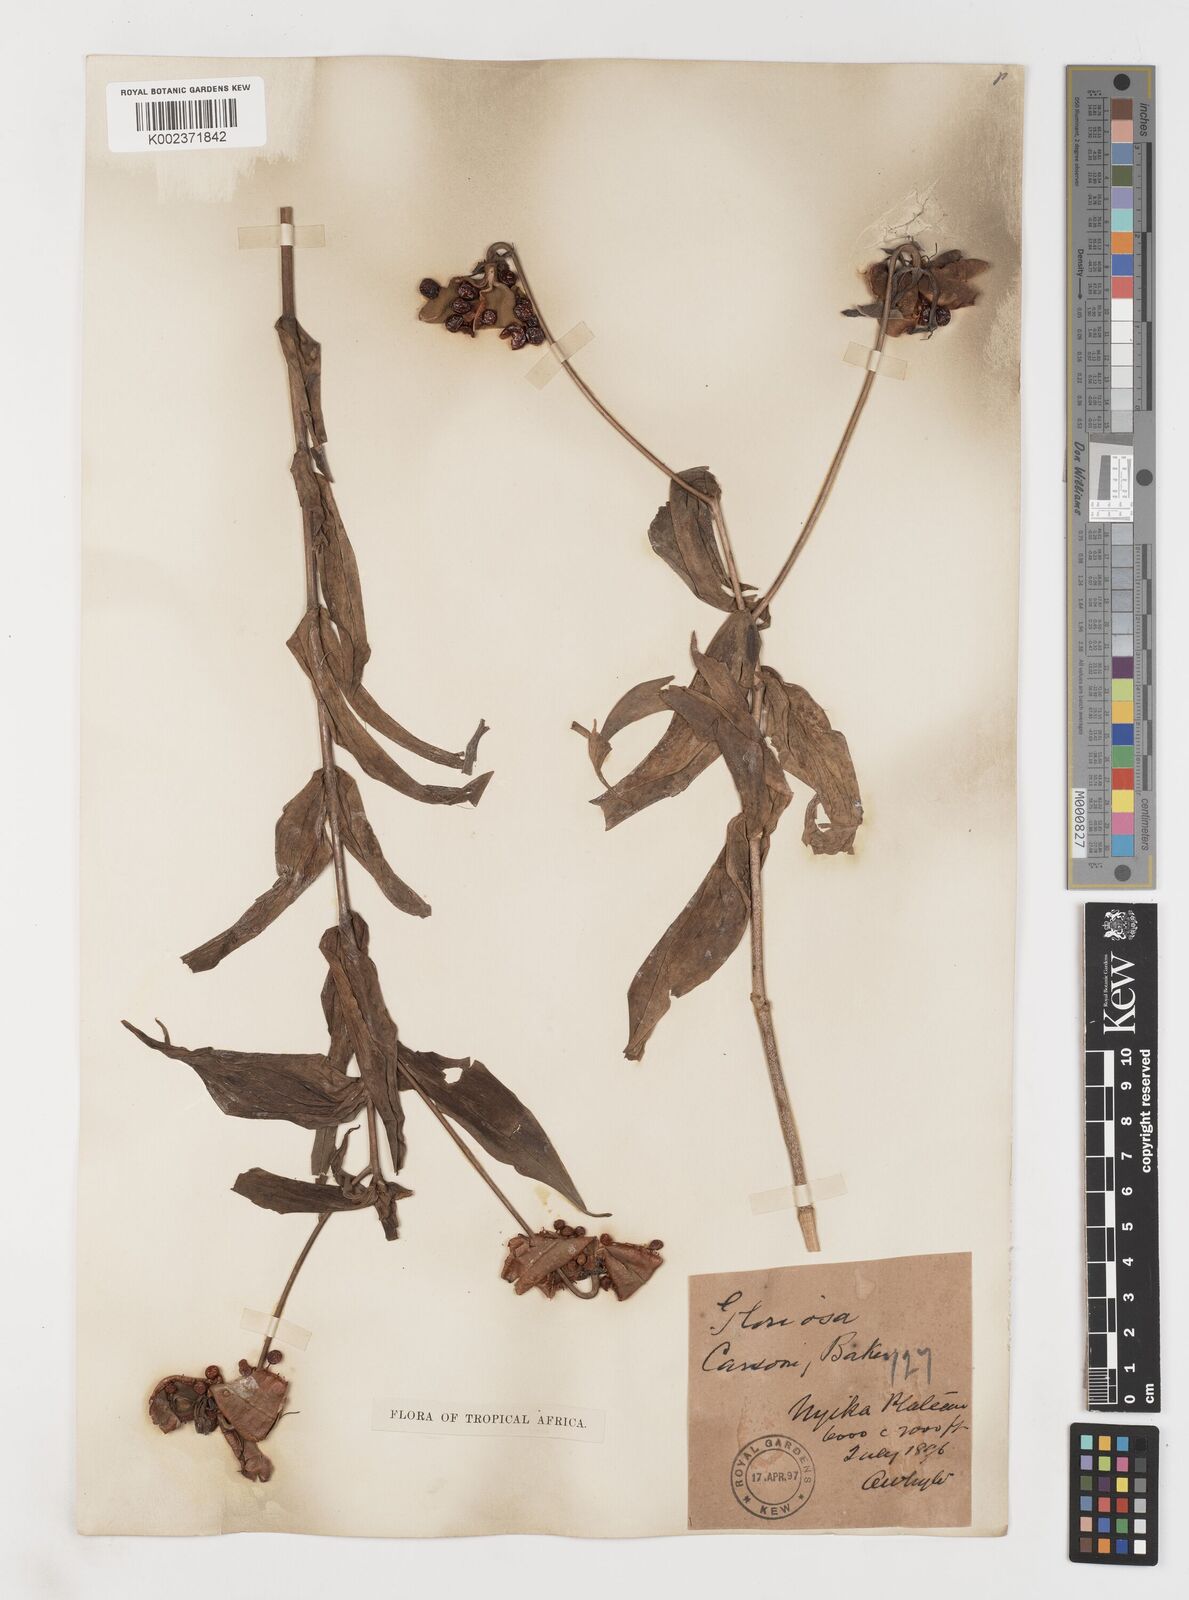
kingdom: Plantae
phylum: Tracheophyta
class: Liliopsida
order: Liliales
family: Colchicaceae
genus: Gloriosa
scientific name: Gloriosa simplex
